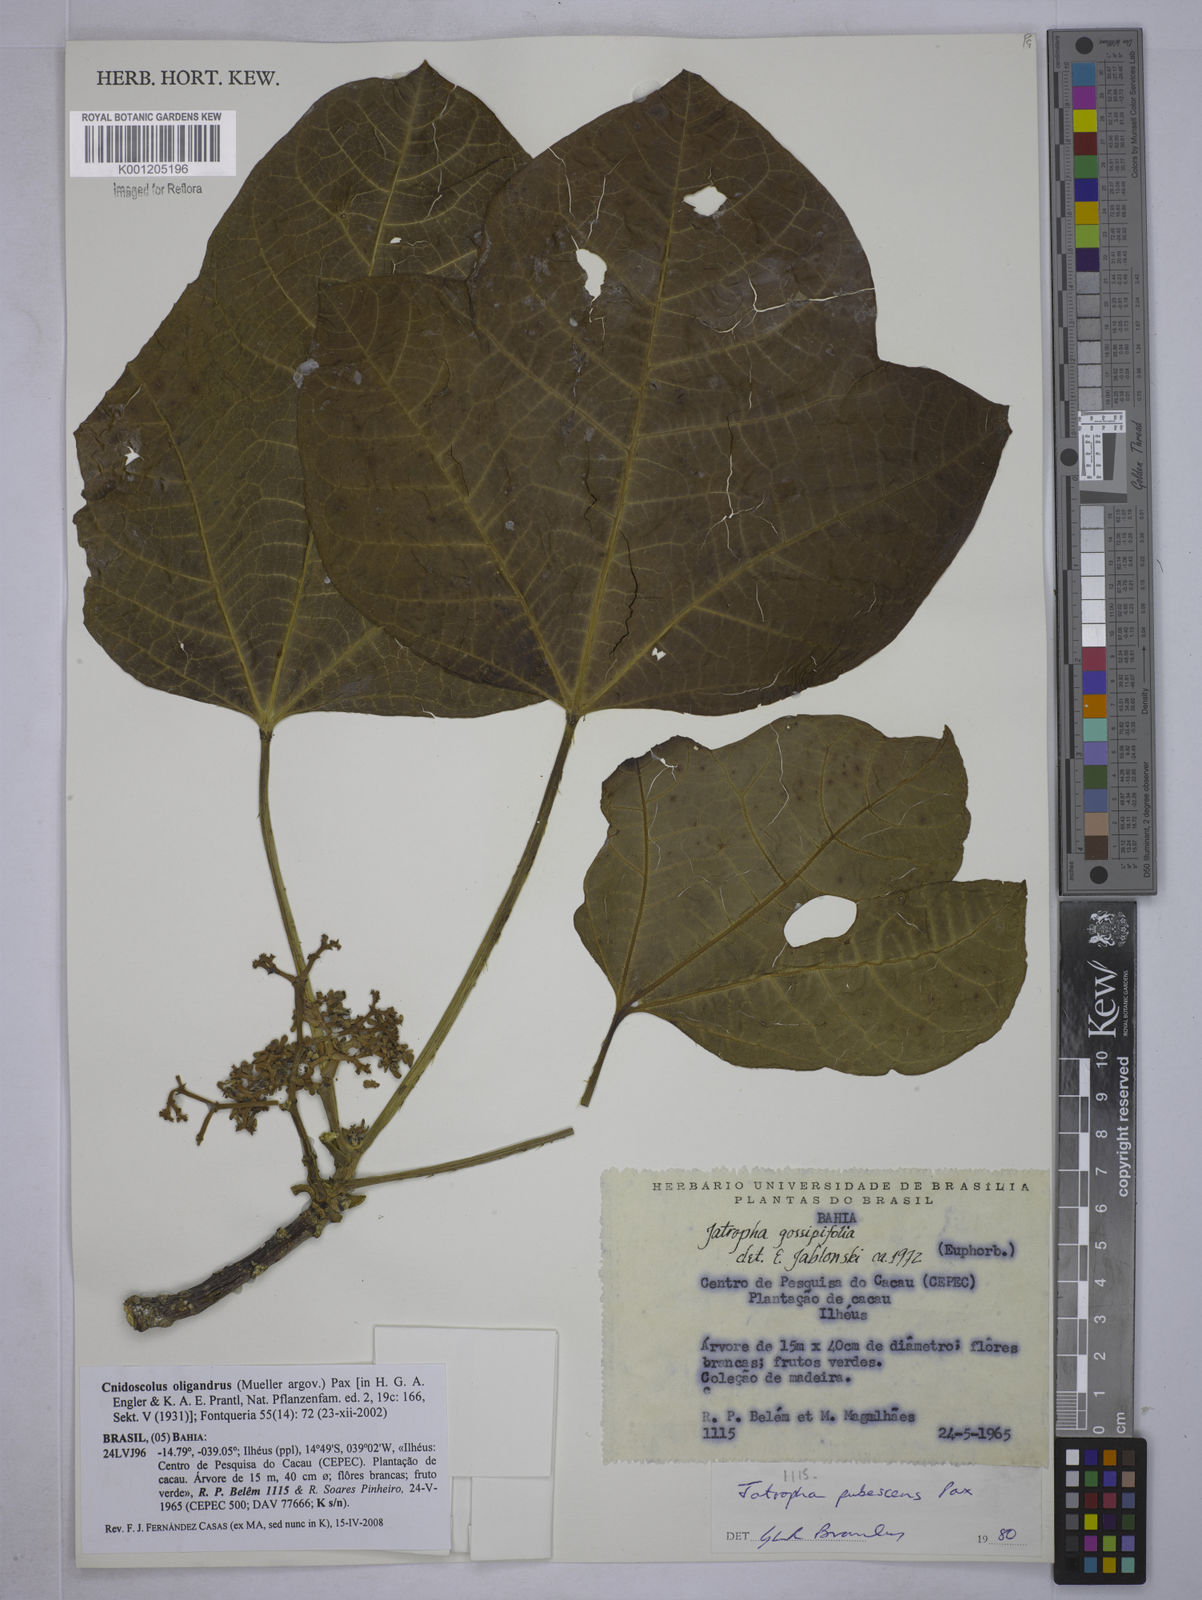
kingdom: Plantae
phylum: Tracheophyta
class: Magnoliopsida
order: Malpighiales
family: Euphorbiaceae
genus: Cnidoscolus
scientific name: Cnidoscolus
